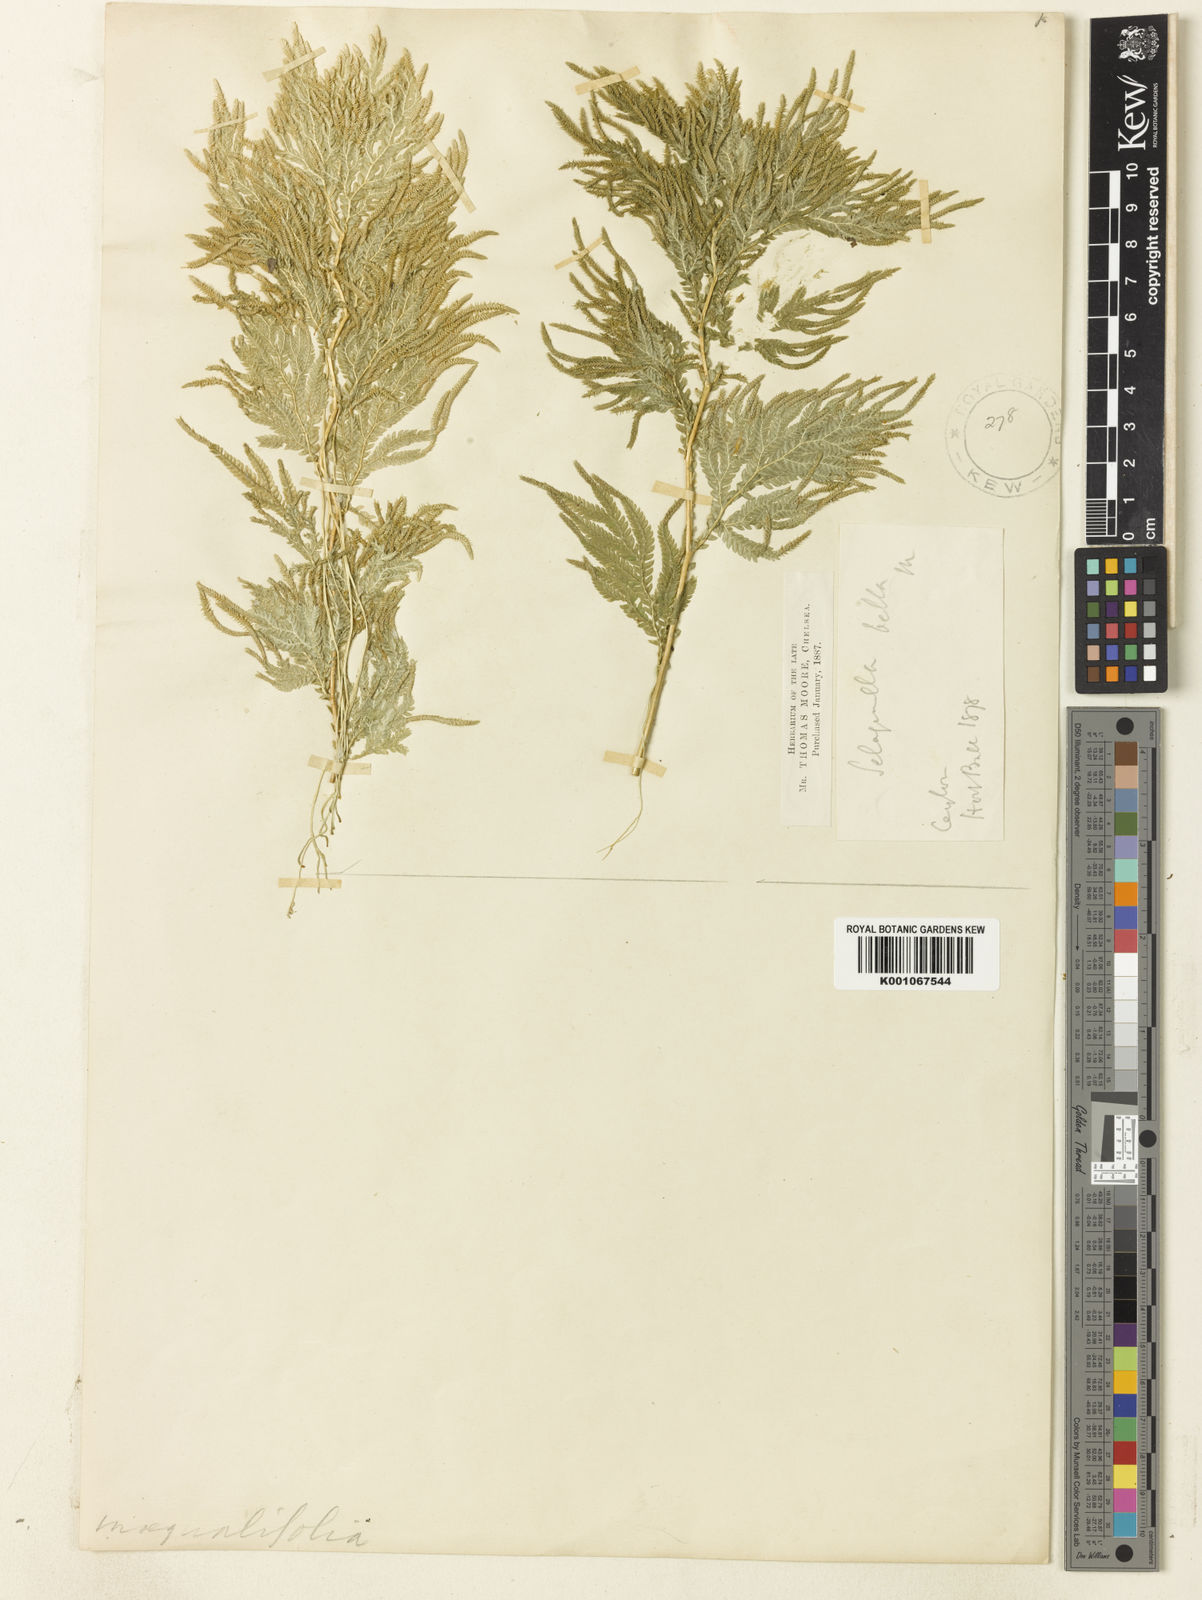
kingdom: Plantae
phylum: Tracheophyta
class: Lycopodiopsida
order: Selaginellales
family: Selaginellaceae
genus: Selaginella
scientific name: Selaginella
